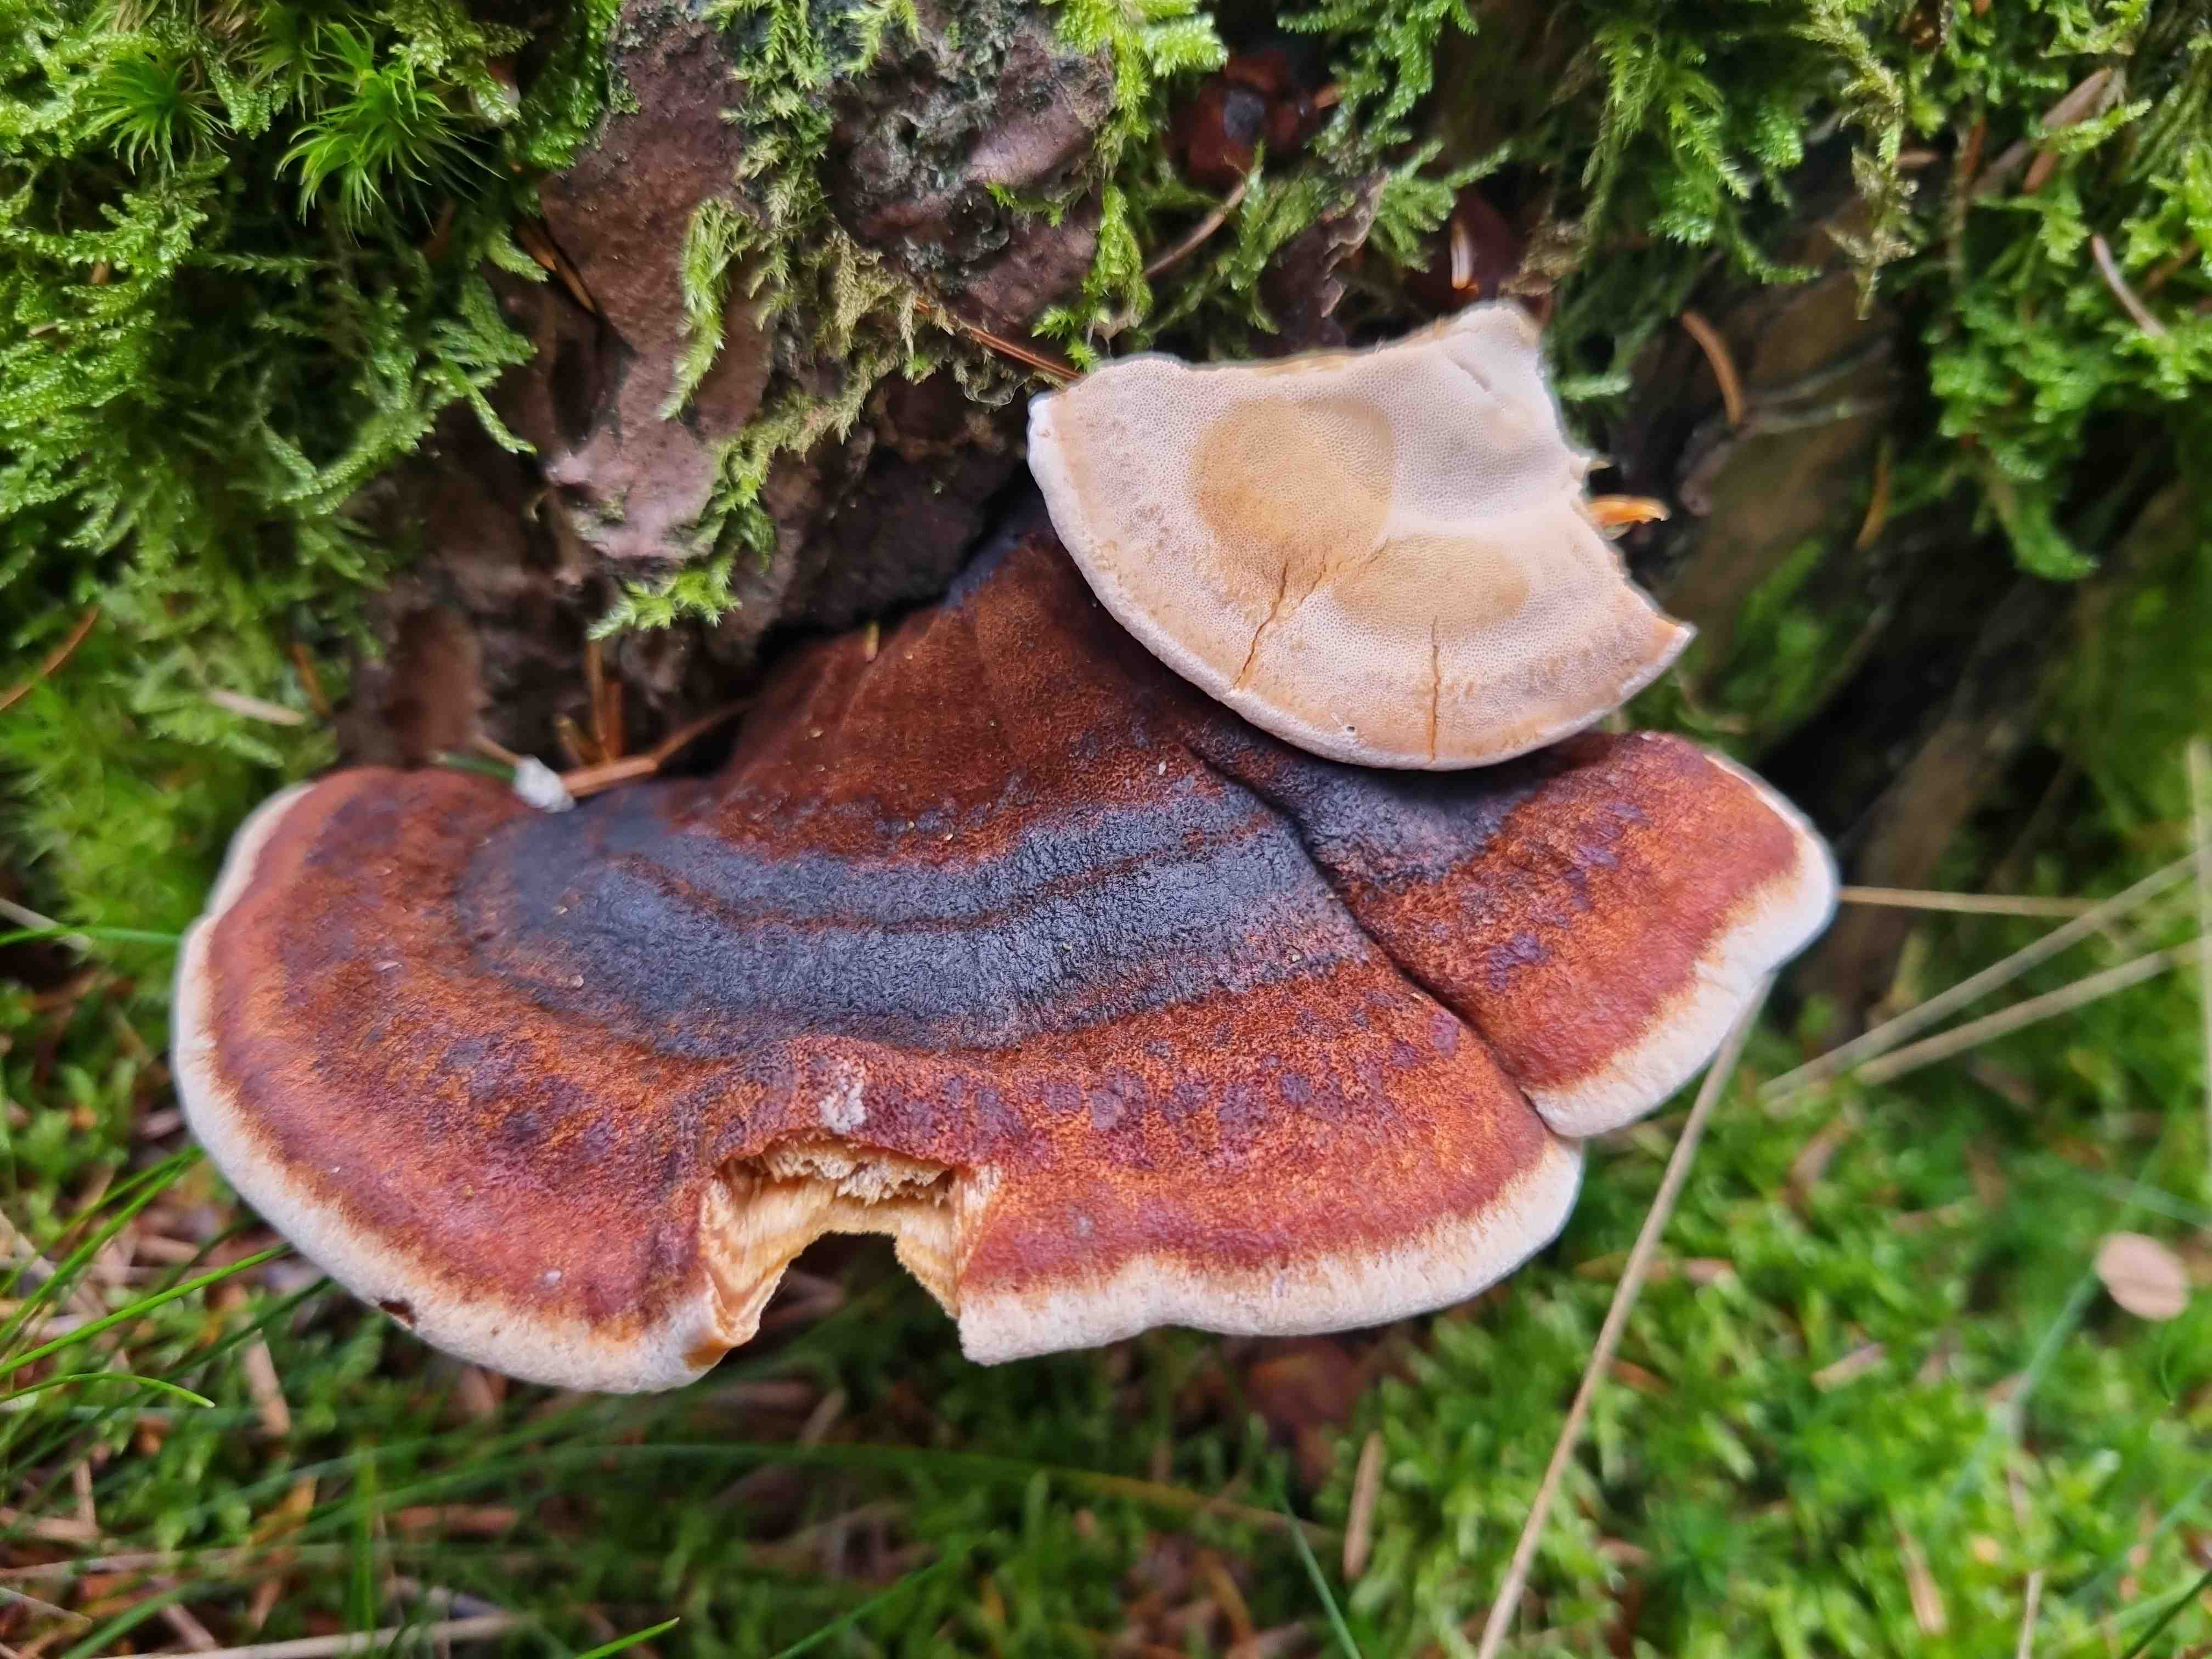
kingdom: Fungi
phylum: Basidiomycota
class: Agaricomycetes
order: Polyporales
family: Ischnodermataceae
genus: Ischnoderma
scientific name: Ischnoderma benzoinum
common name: gran-tjæreporesvamp
